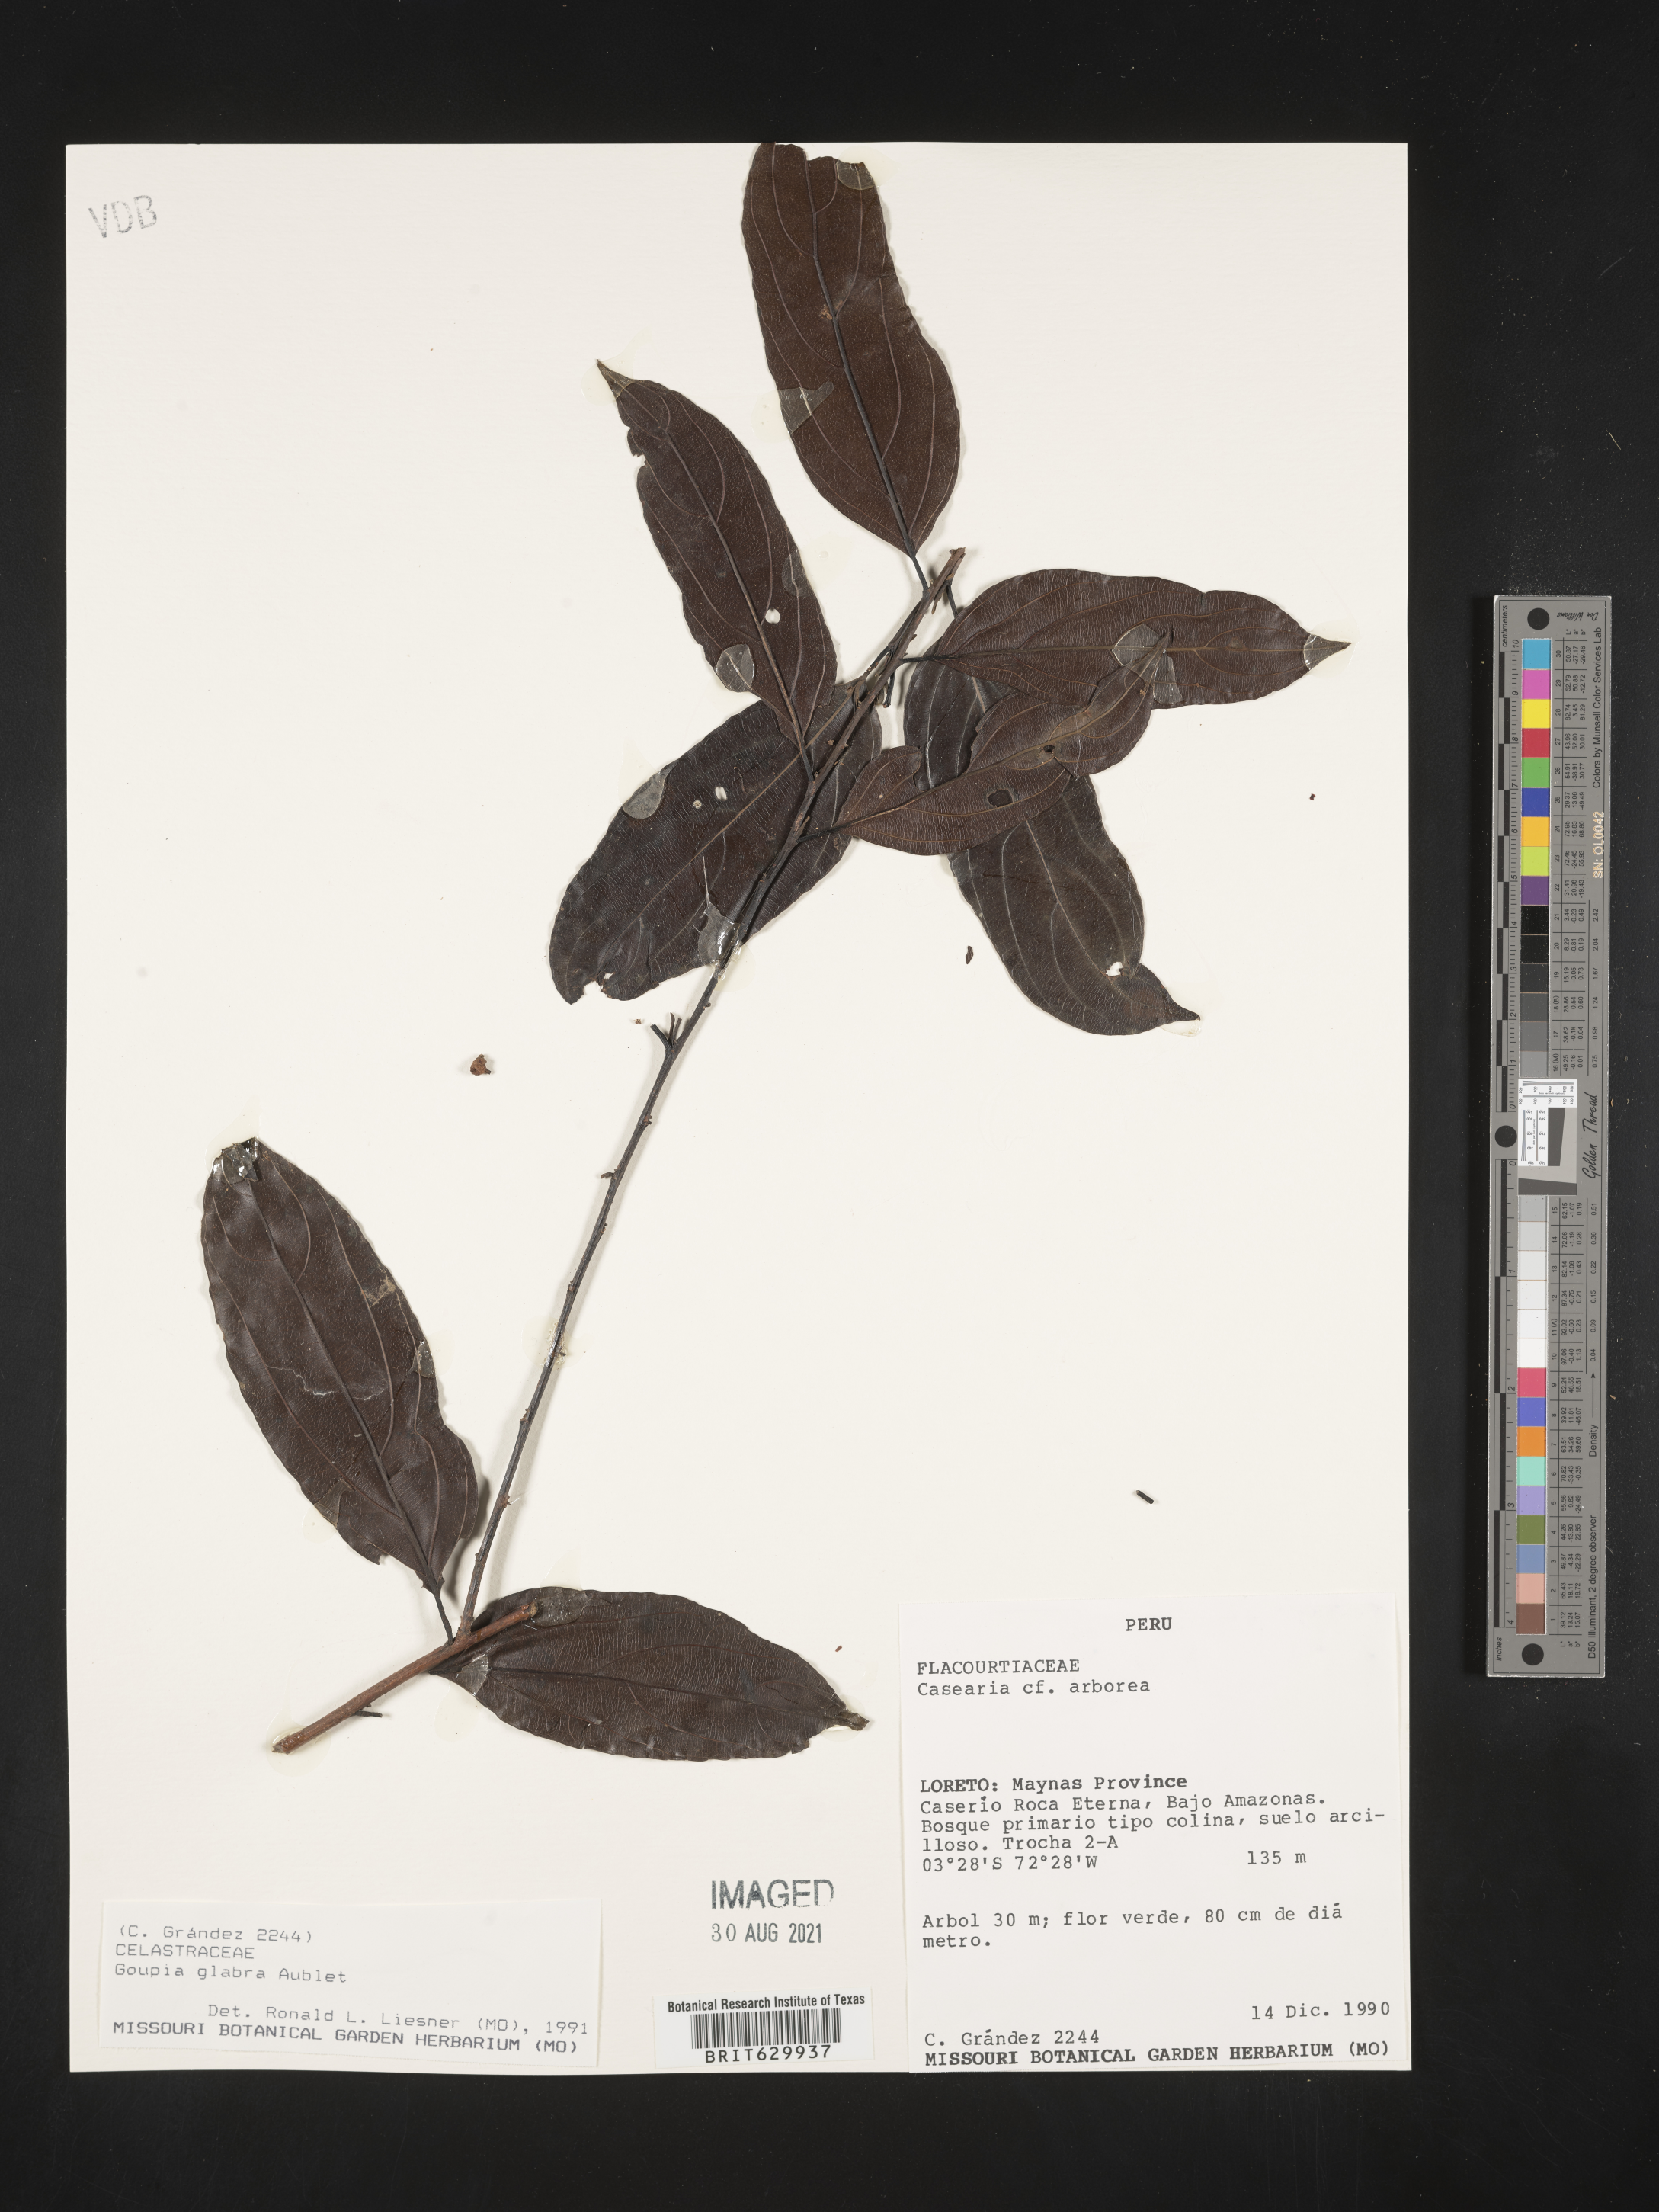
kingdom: Plantae
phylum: Tracheophyta
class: Magnoliopsida
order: Malpighiales
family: Goupiaceae
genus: Goupia
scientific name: Goupia
